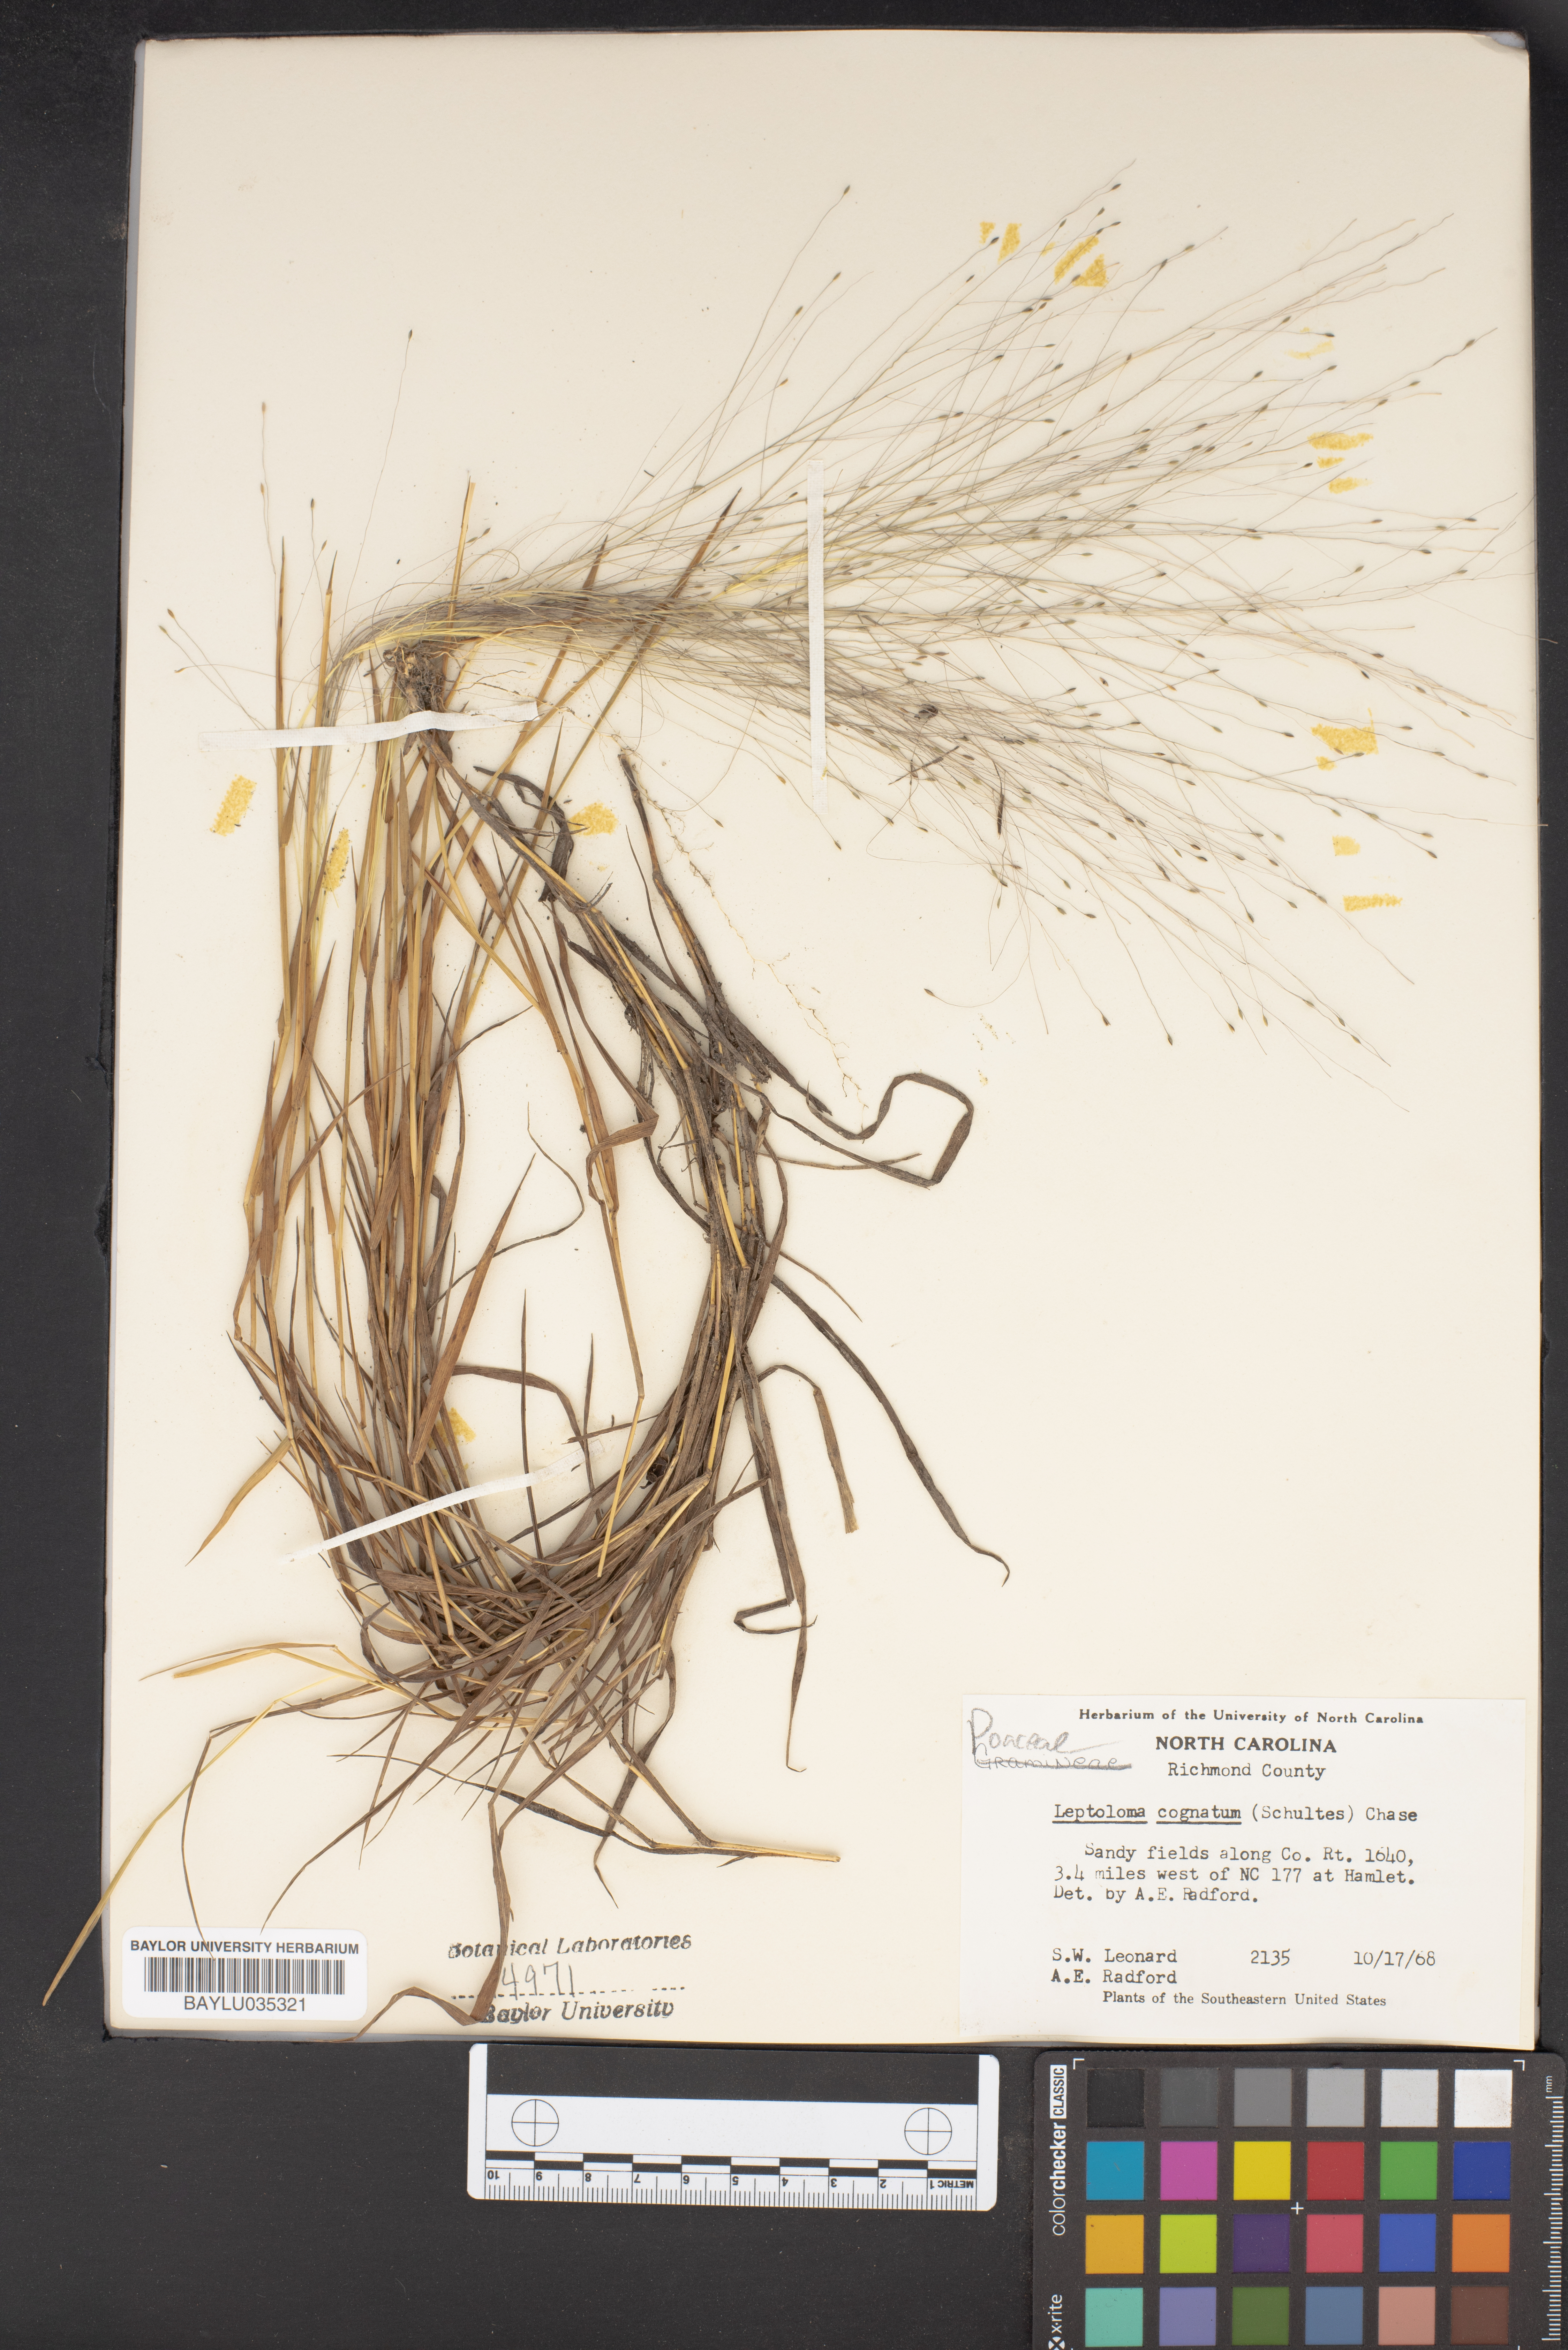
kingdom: Plantae
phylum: Tracheophyta
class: Liliopsida
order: Poales
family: Poaceae
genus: Digitaria
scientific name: Digitaria cognata
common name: Fall witchgrass
